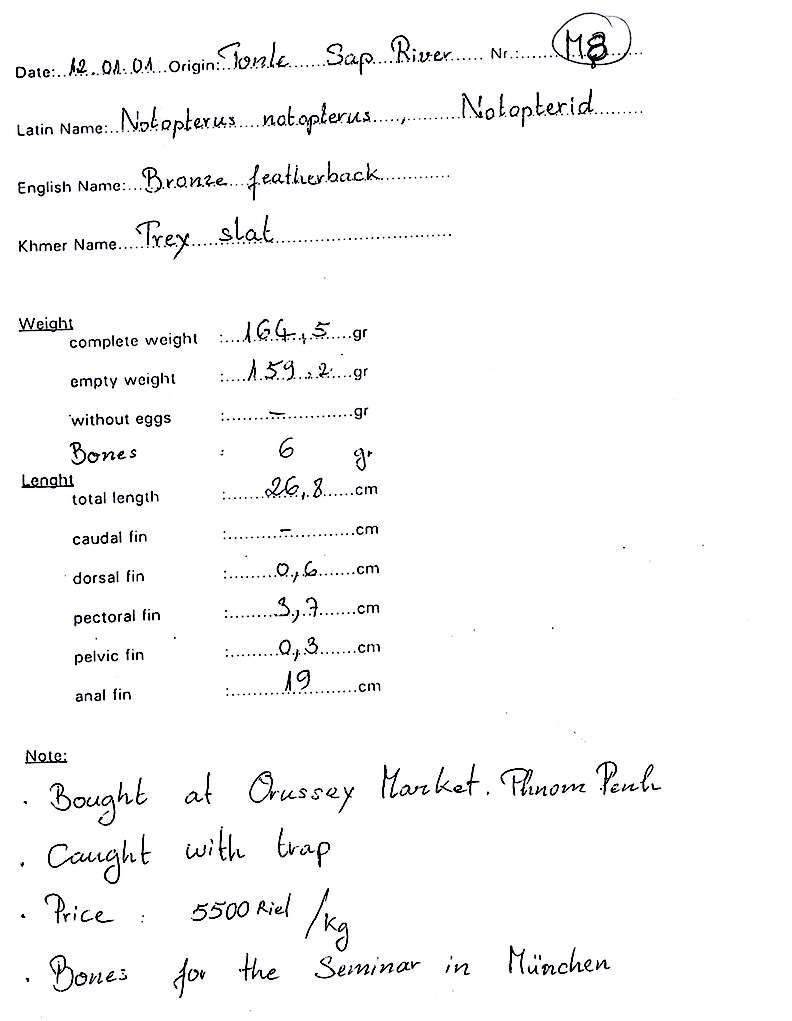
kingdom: Animalia
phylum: Chordata
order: Osteoglossiformes
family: Notopteridae
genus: Notopterus
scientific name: Notopterus notopterus
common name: Bronze featherback
